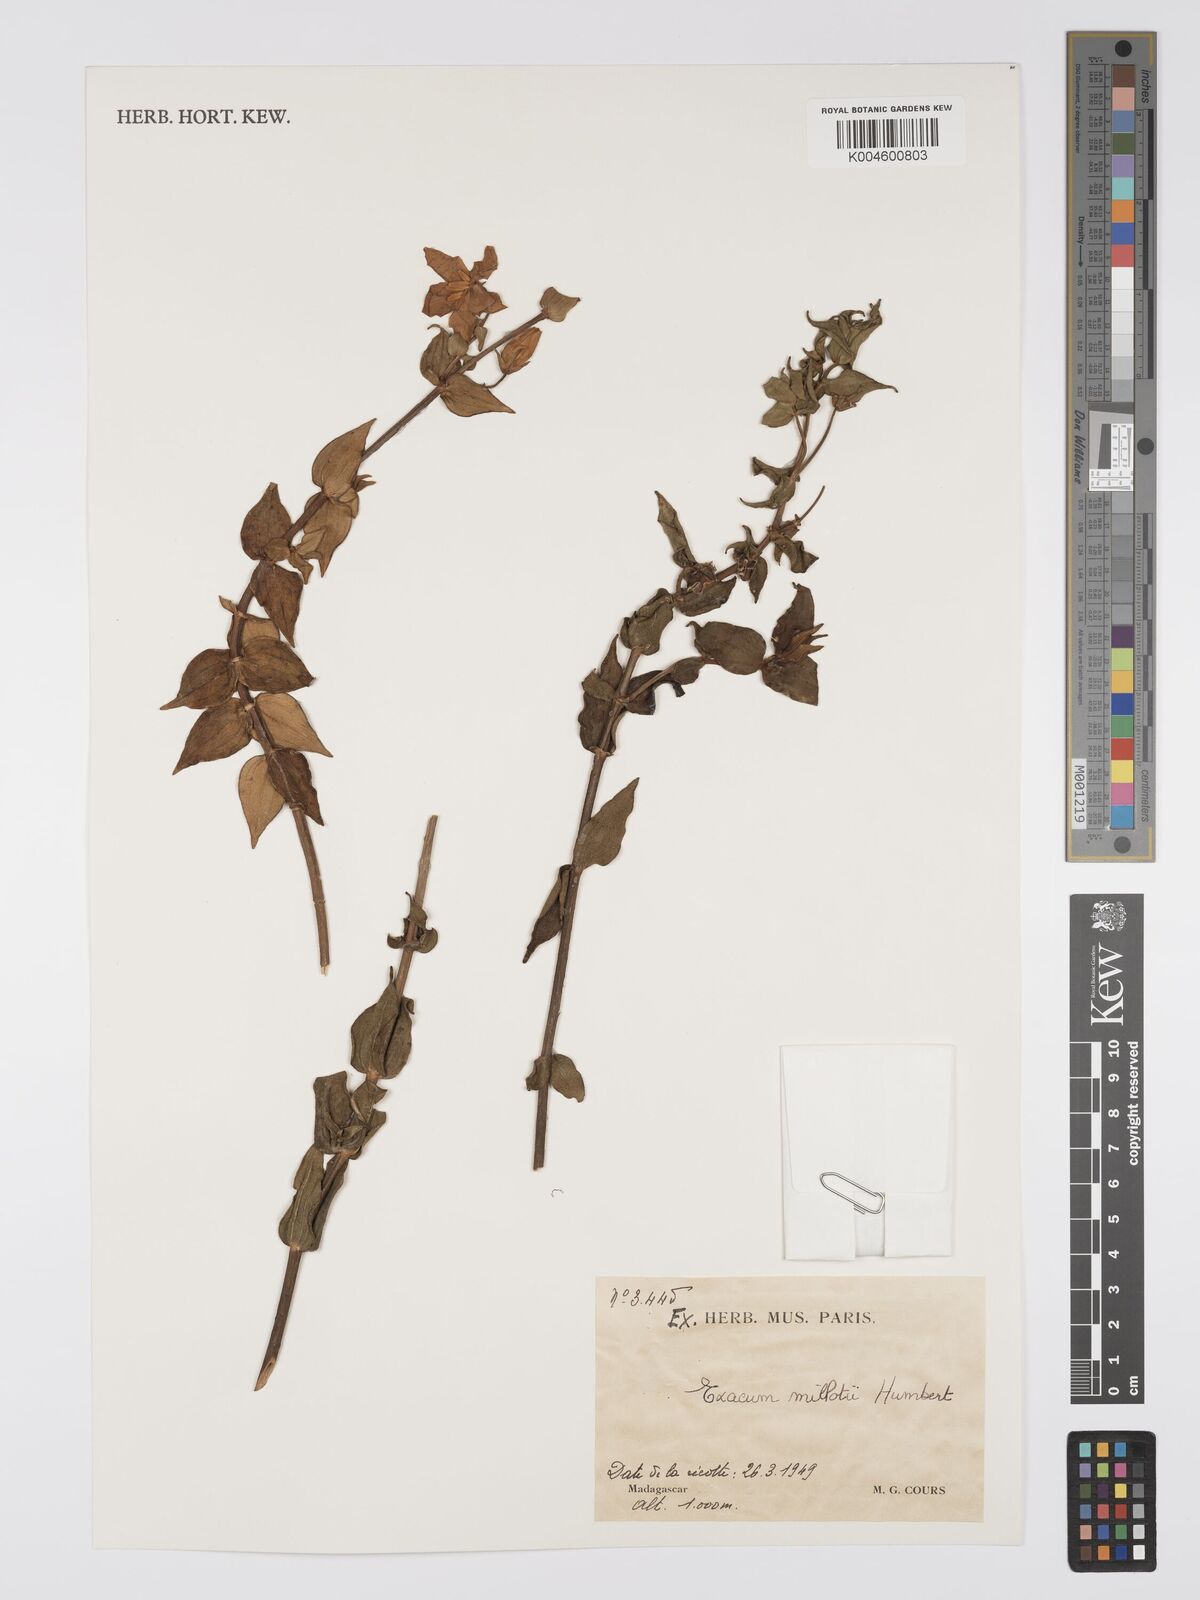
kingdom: Plantae
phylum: Tracheophyta
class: Magnoliopsida
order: Gentianales
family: Gentianaceae
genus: Exacum
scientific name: Exacum millotii
